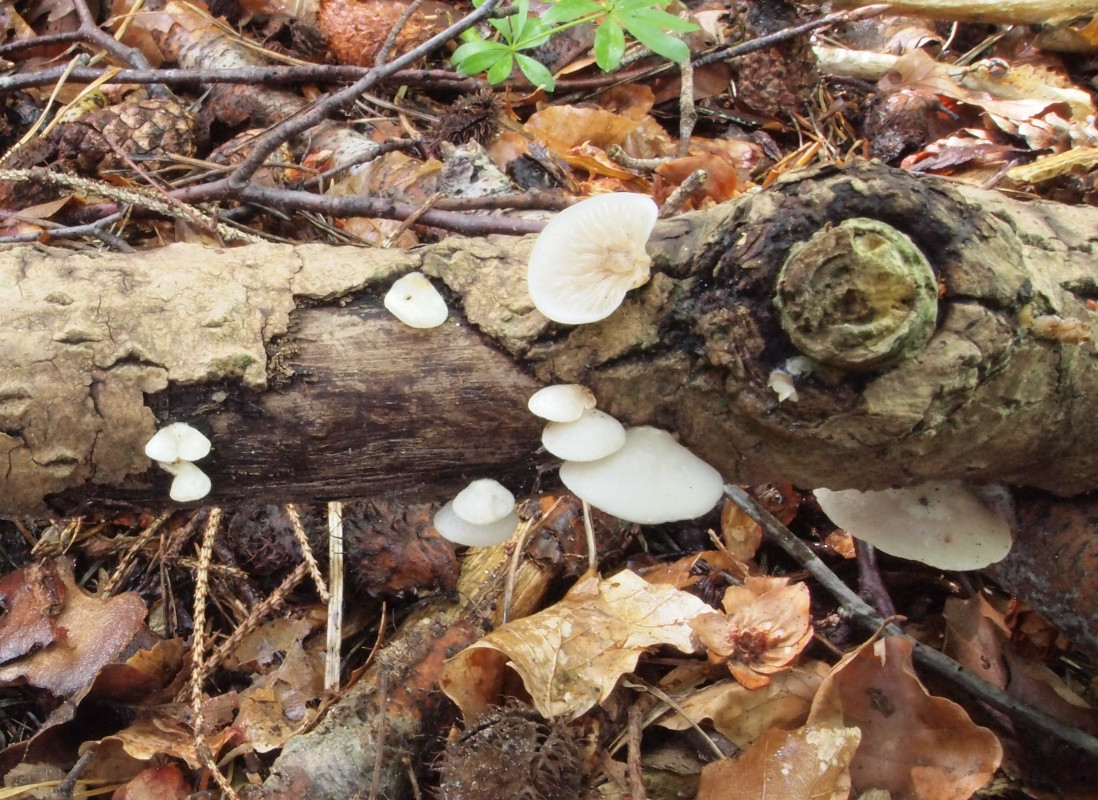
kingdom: Fungi
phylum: Basidiomycota
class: Agaricomycetes
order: Agaricales
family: Crepidotaceae
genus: Crepidotus
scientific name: Crepidotus mollis
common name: blød muslingesvamp
